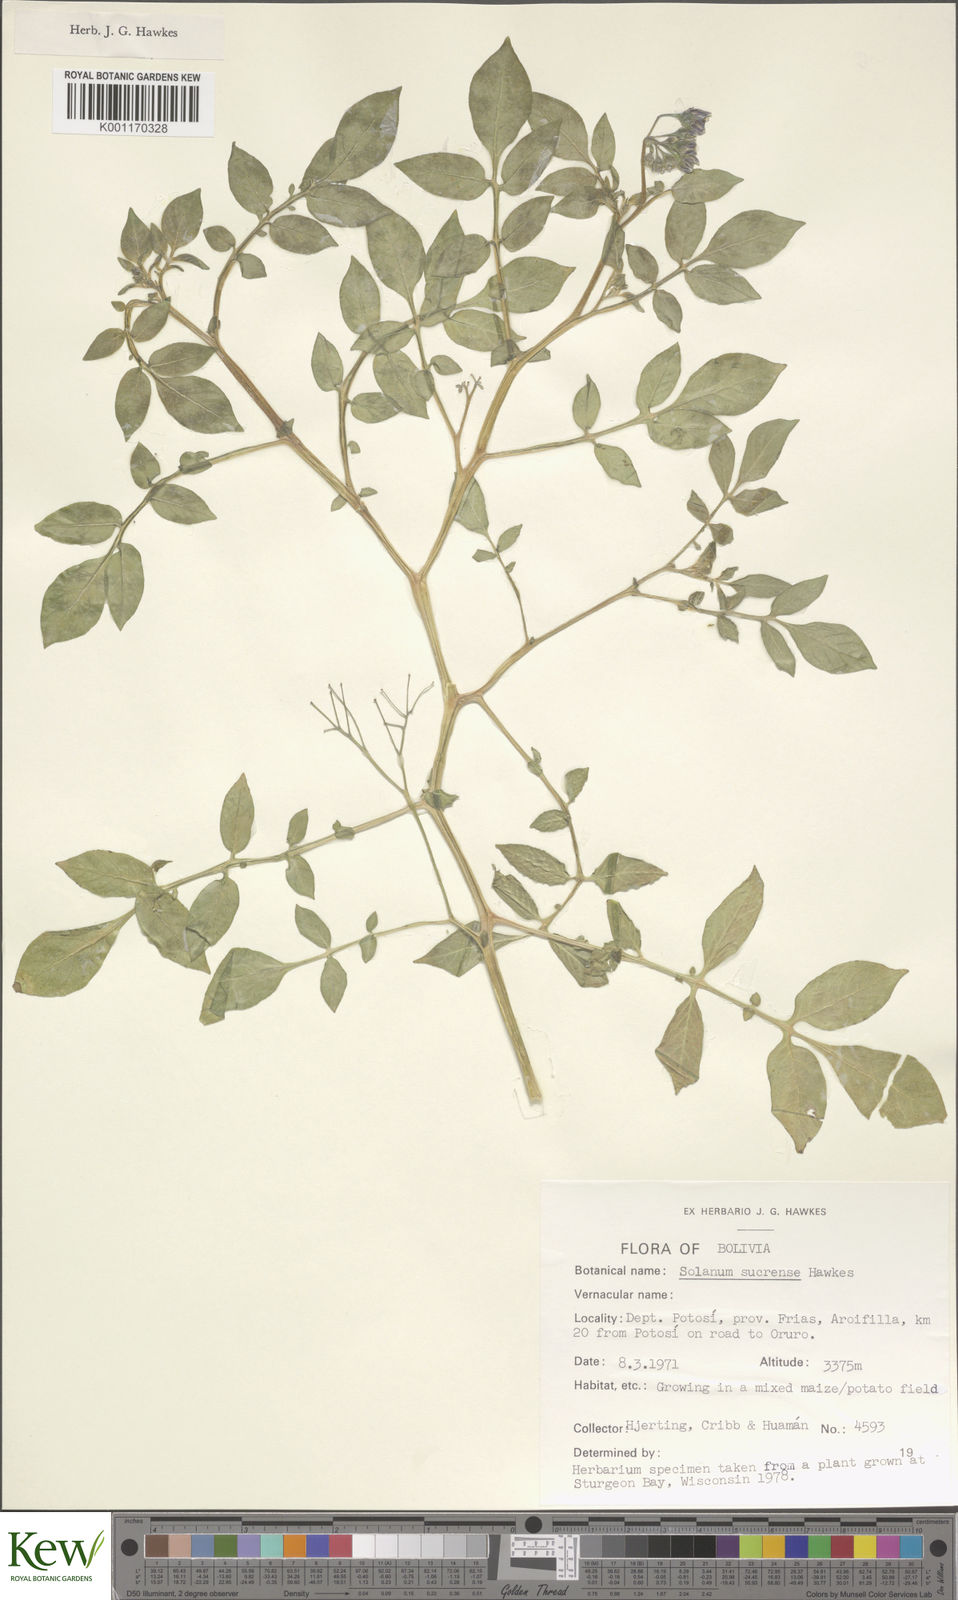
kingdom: Plantae
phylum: Tracheophyta
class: Magnoliopsida
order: Solanales
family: Solanaceae
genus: Solanum
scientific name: Solanum brevicaule
